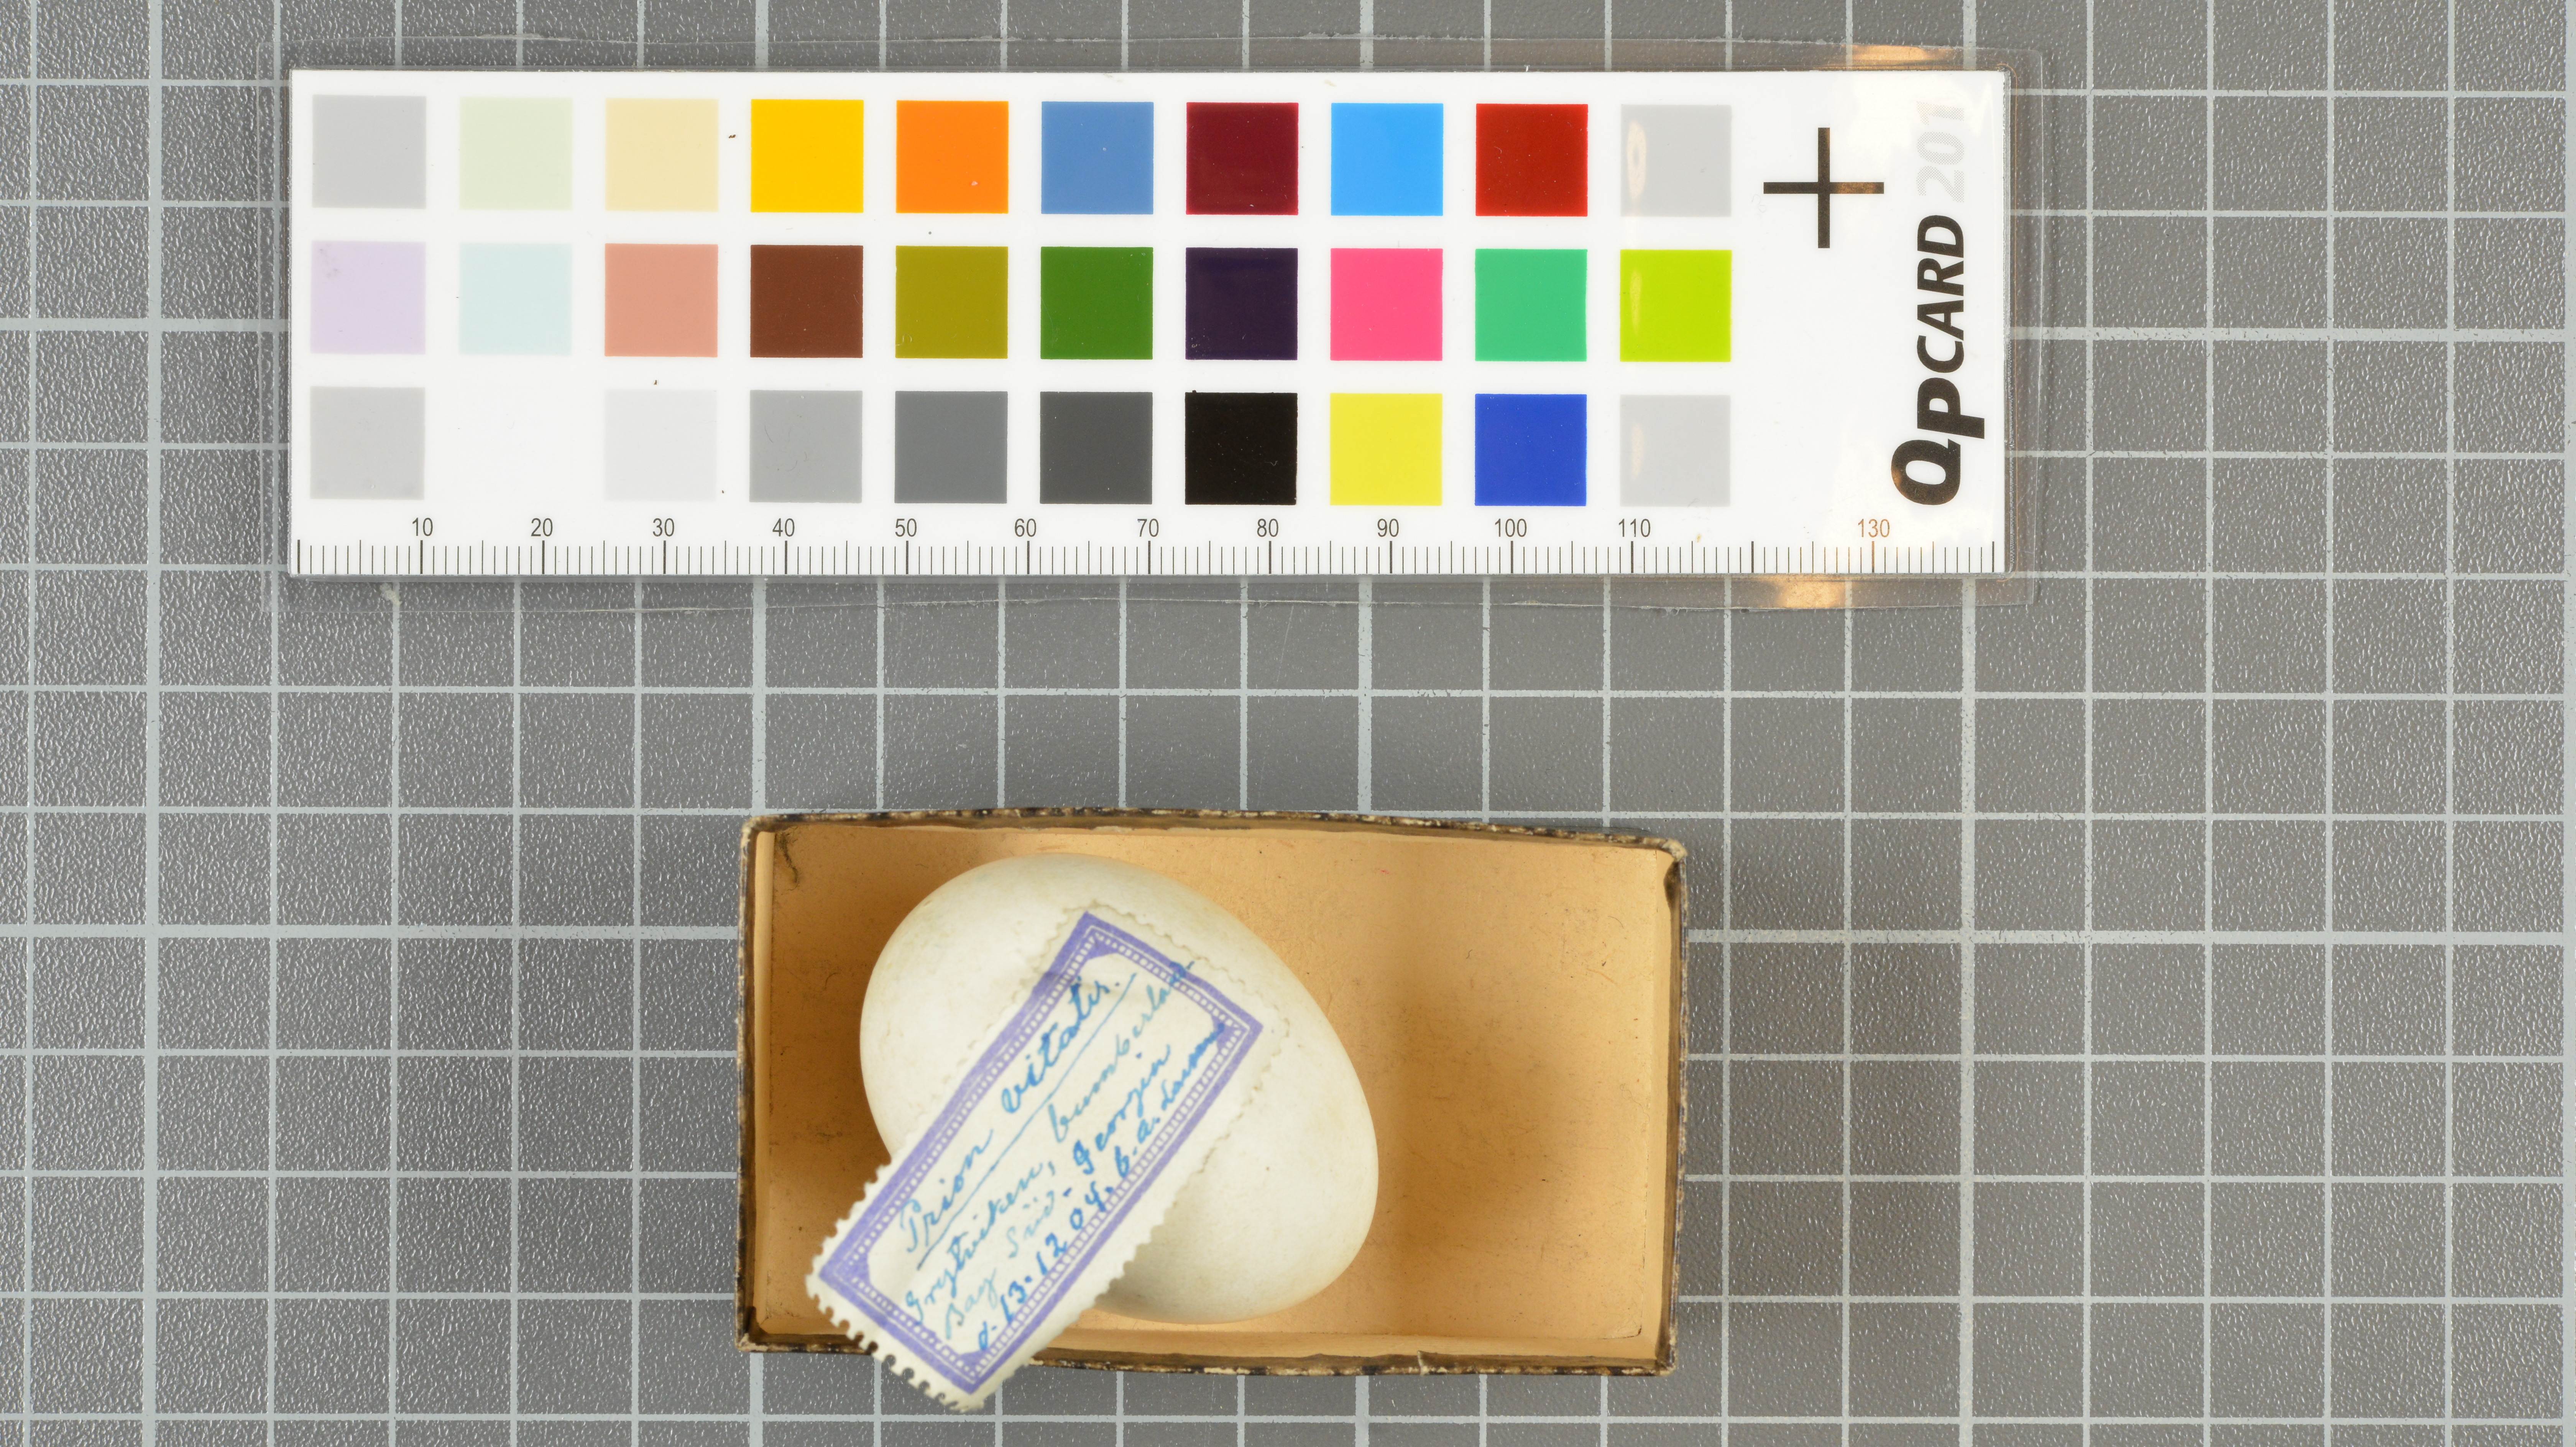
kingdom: Animalia
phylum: Chordata
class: Aves
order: Procellariiformes
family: Procellariidae
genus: Pachyptila
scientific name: Pachyptila vittata
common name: Broad-billed prion
